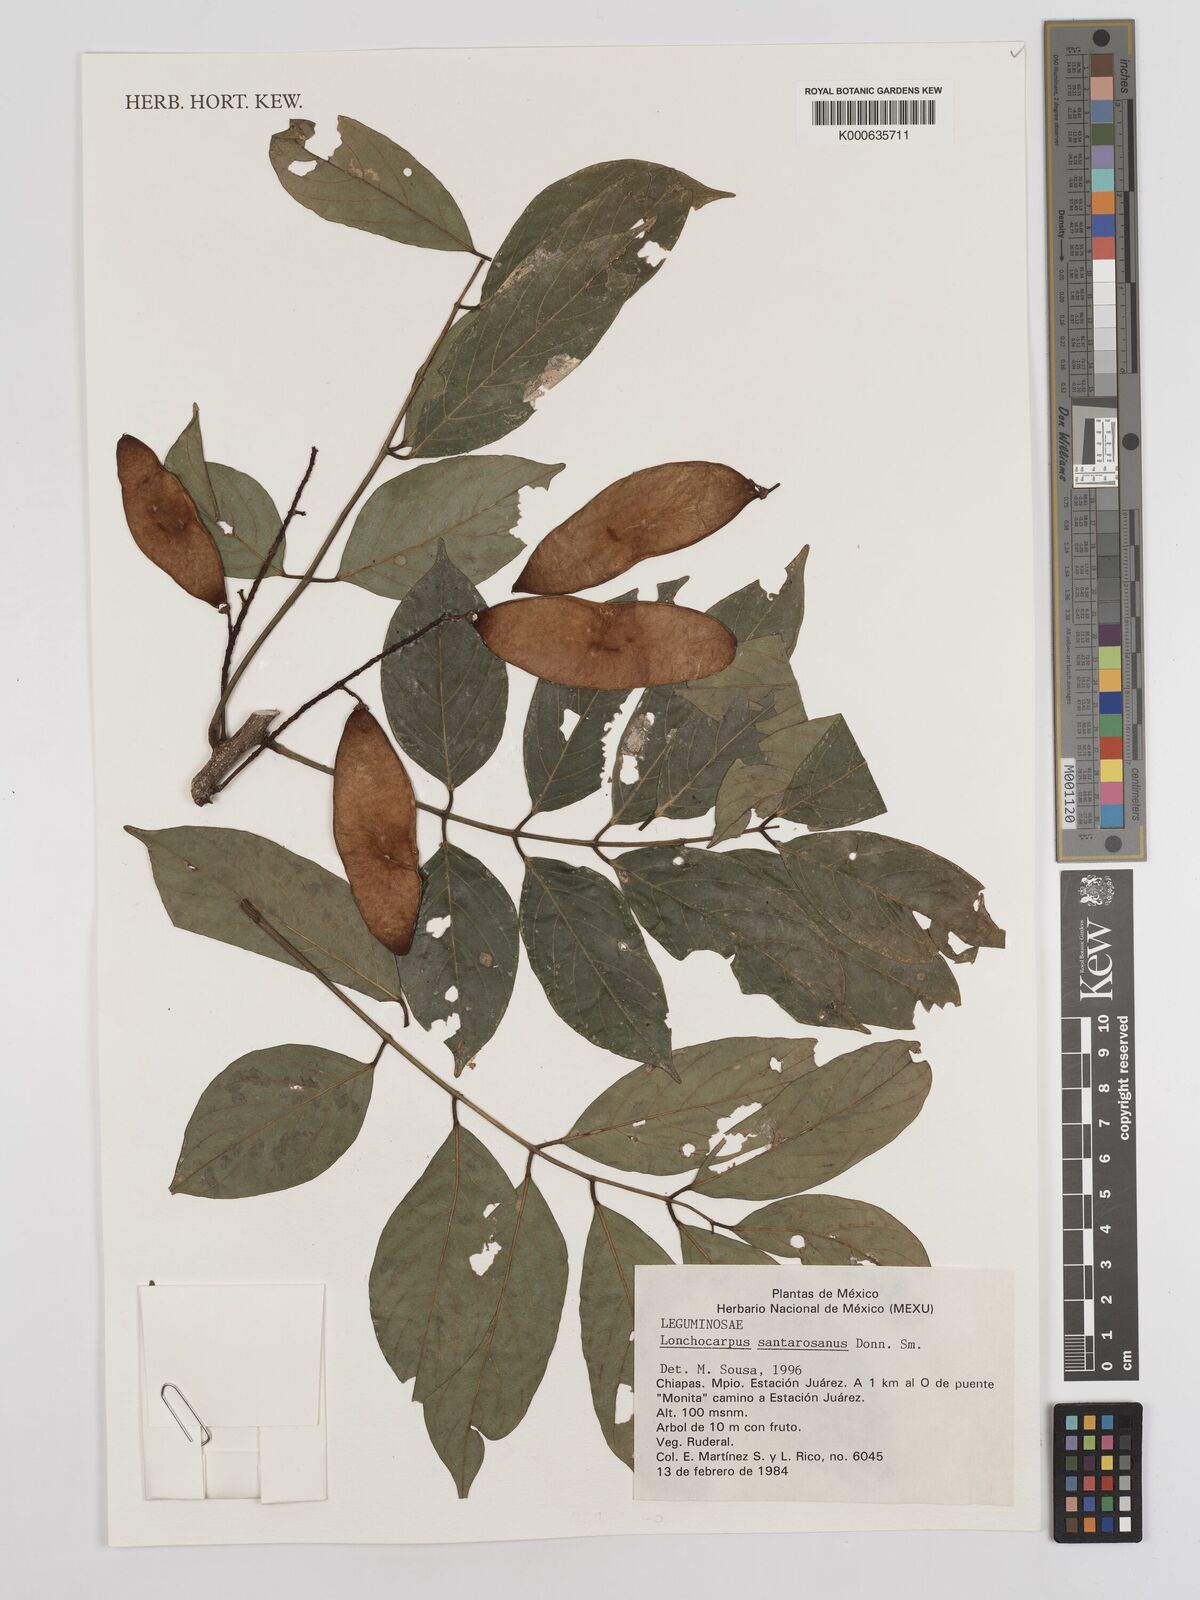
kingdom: Plantae
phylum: Tracheophyta
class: Magnoliopsida
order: Fabales
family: Fabaceae
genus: Lonchocarpus
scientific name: Lonchocarpus santarosanus
